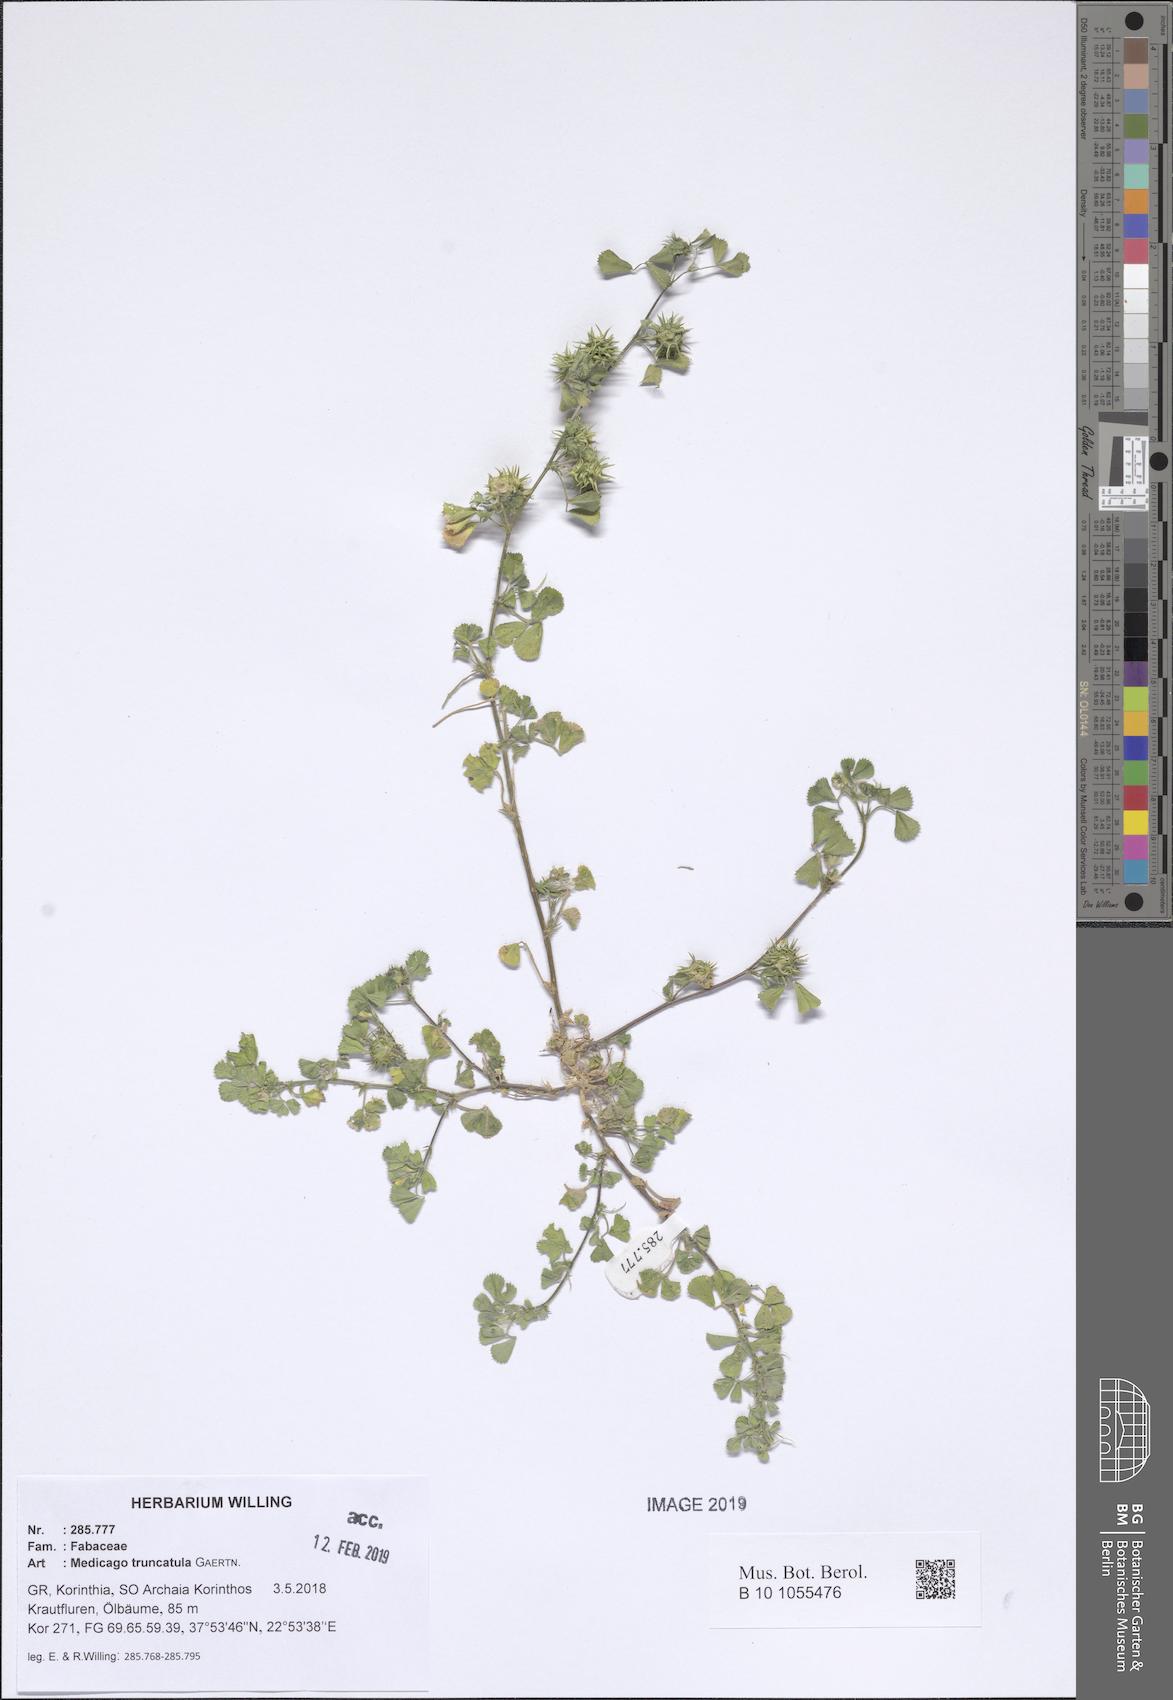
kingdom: Plantae
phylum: Tracheophyta
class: Magnoliopsida
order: Fabales
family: Fabaceae
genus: Medicago
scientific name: Medicago truncatula
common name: Strong-spined medick
